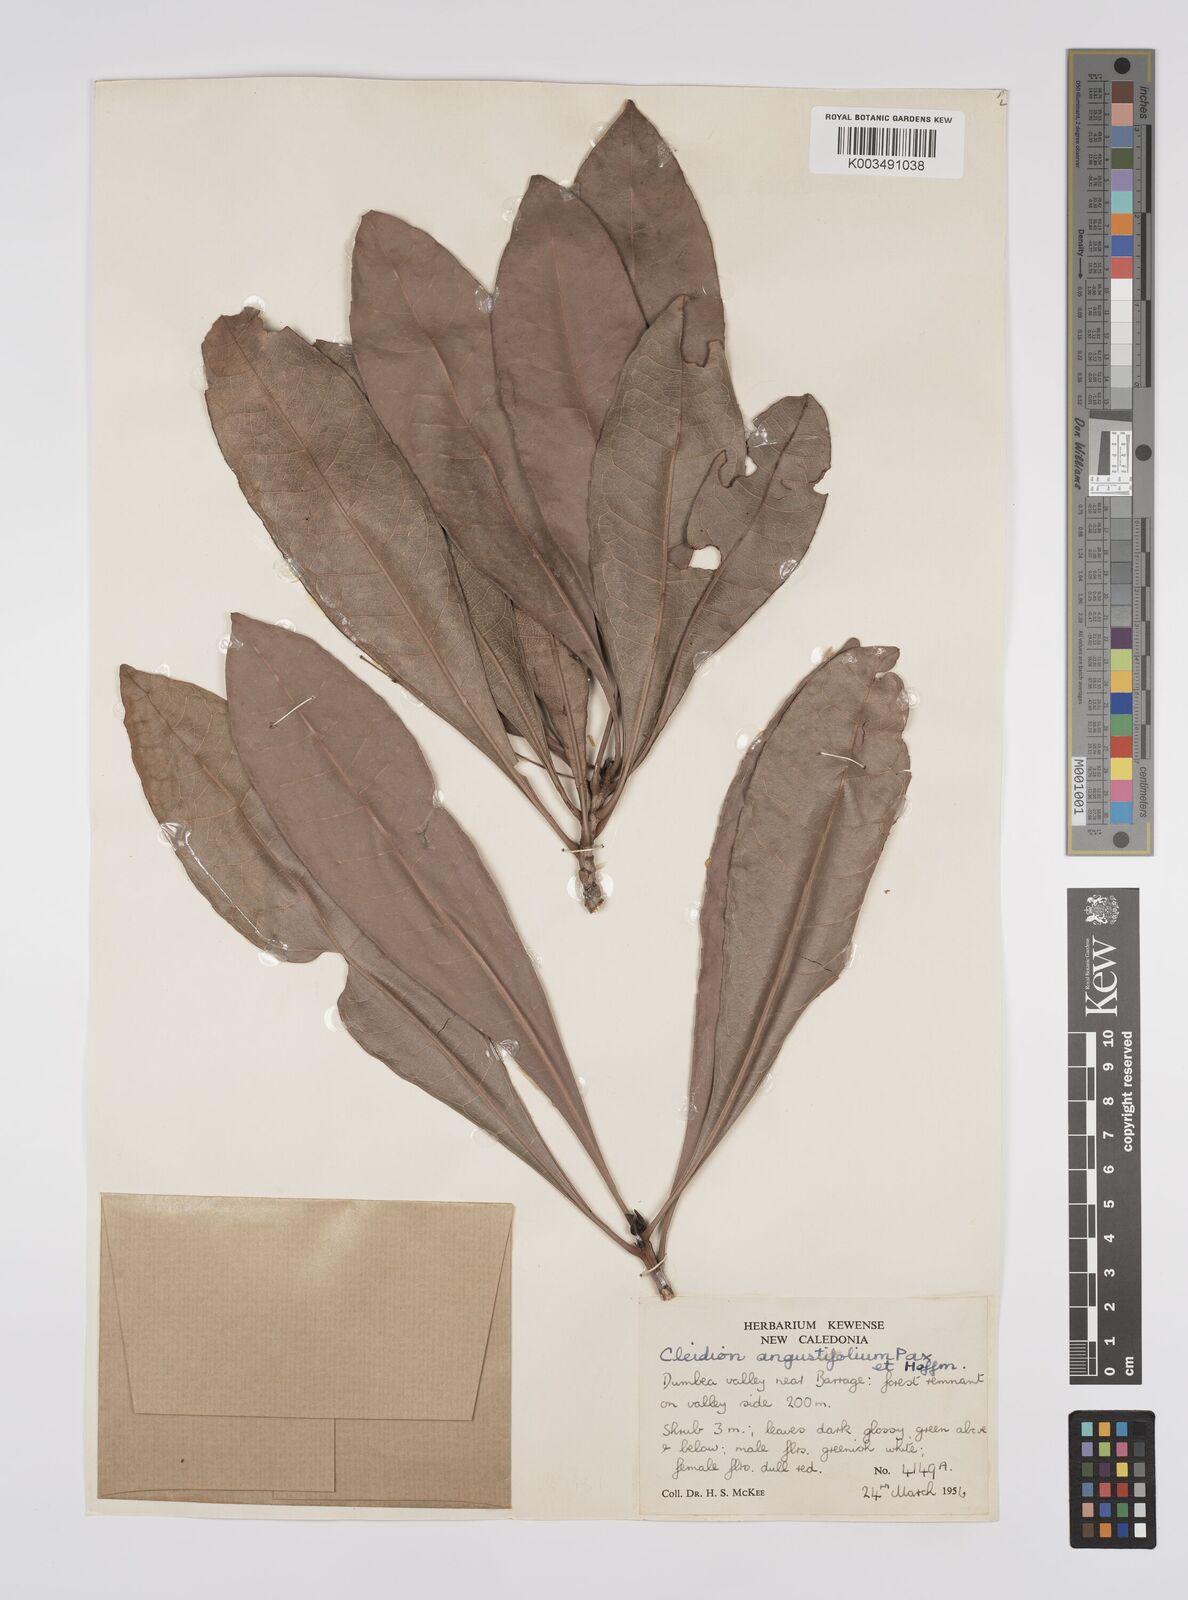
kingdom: Plantae
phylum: Tracheophyta
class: Magnoliopsida
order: Malpighiales
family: Euphorbiaceae
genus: Cleidion
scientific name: Cleidion vieillardii
